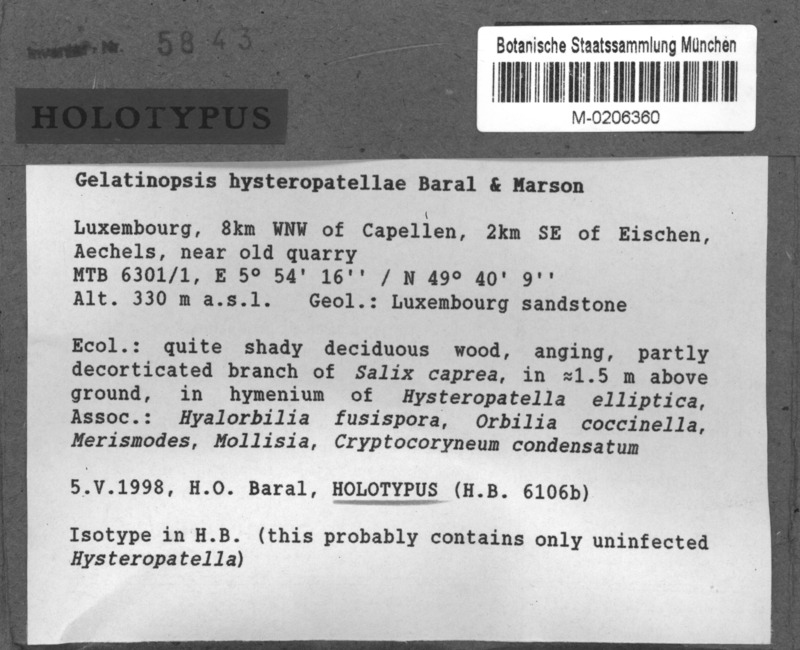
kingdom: Fungi
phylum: Ascomycota
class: Leotiomycetes
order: Phacidiales
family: Helicogoniaceae
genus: Gelatinopsis
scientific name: Gelatinopsis hysteropatellae
